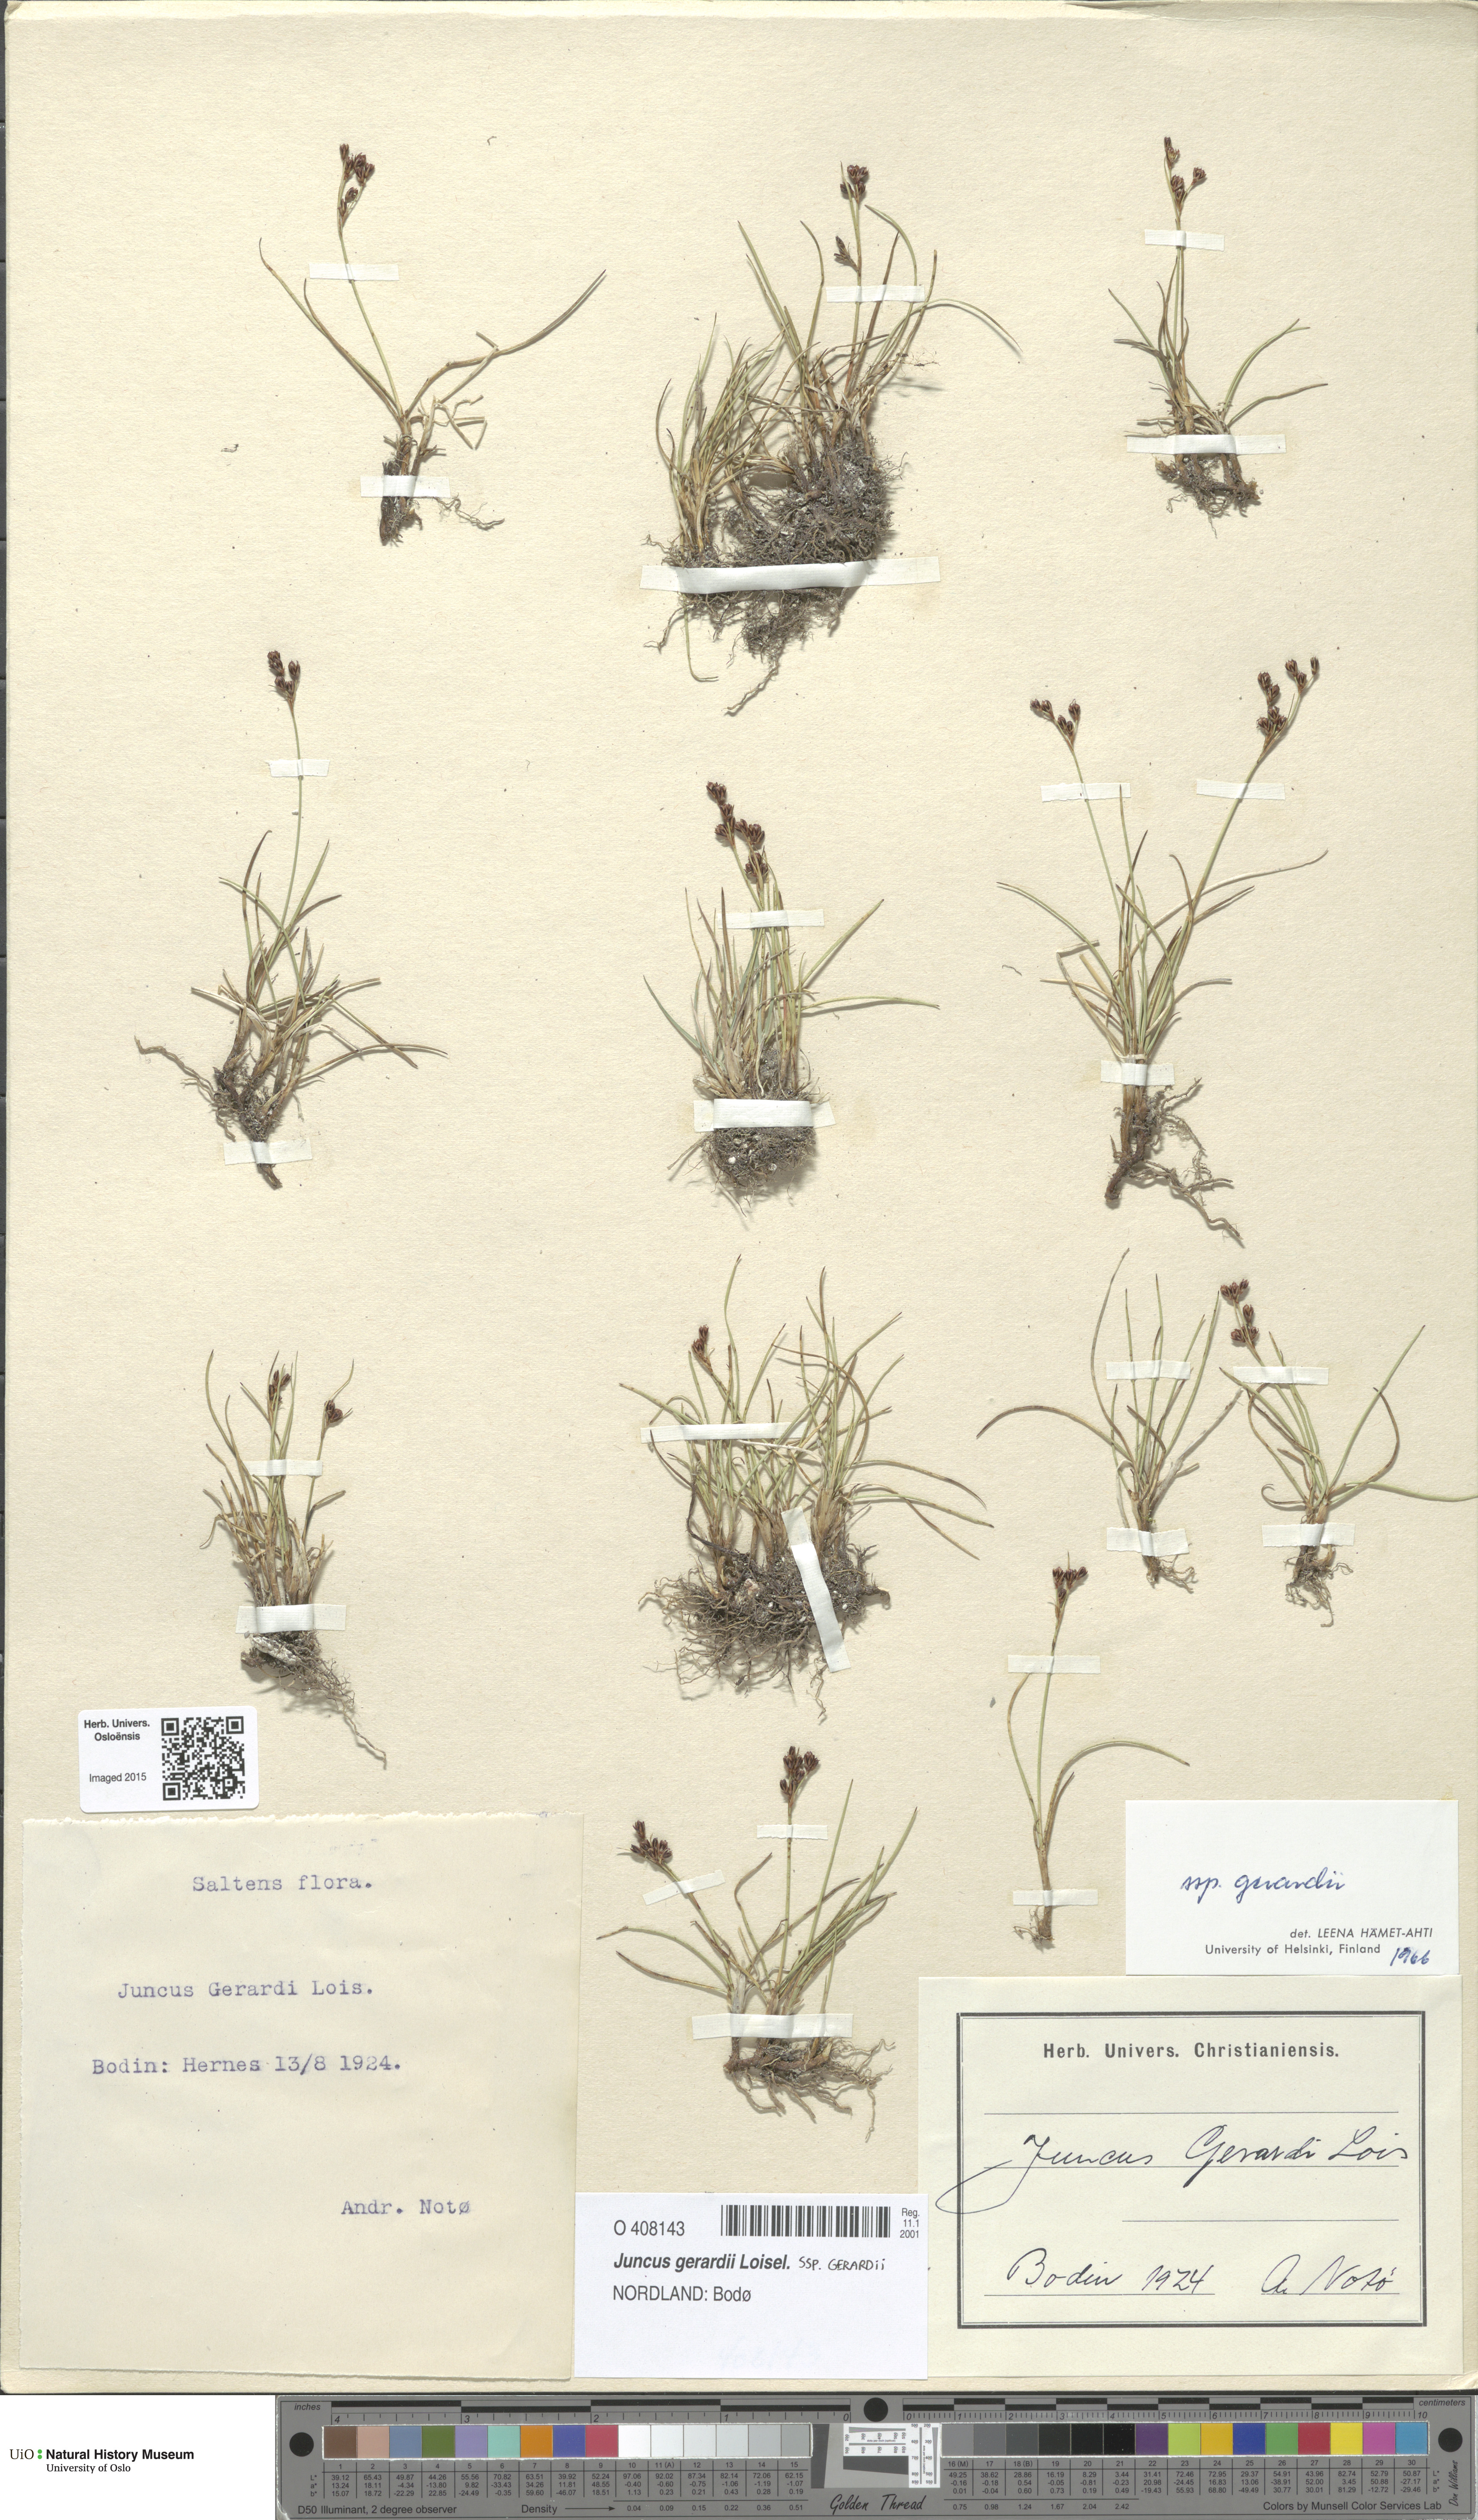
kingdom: Plantae
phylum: Tracheophyta
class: Liliopsida
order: Poales
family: Juncaceae
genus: Juncus
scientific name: Juncus gerardi
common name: Saltmarsh rush
